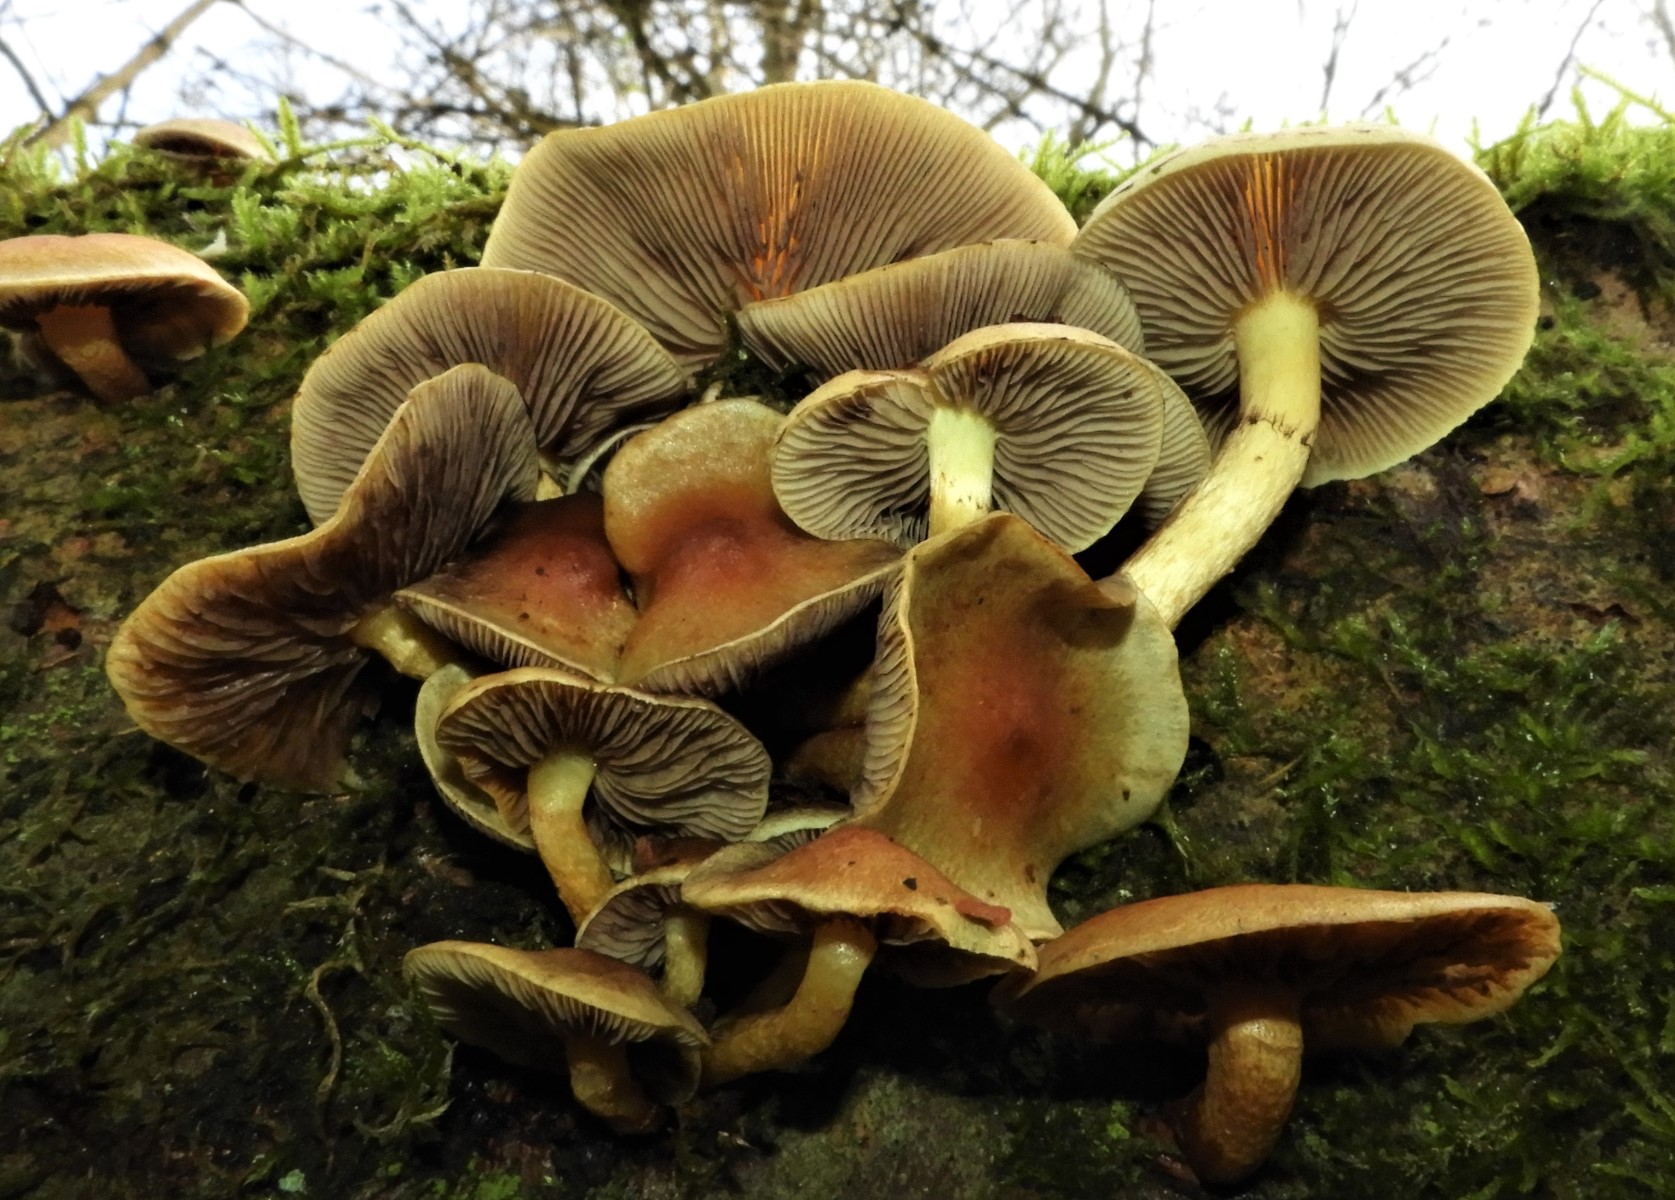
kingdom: Fungi
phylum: Basidiomycota
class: Agaricomycetes
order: Agaricales
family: Strophariaceae
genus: Hypholoma
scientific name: Hypholoma fasciculare
